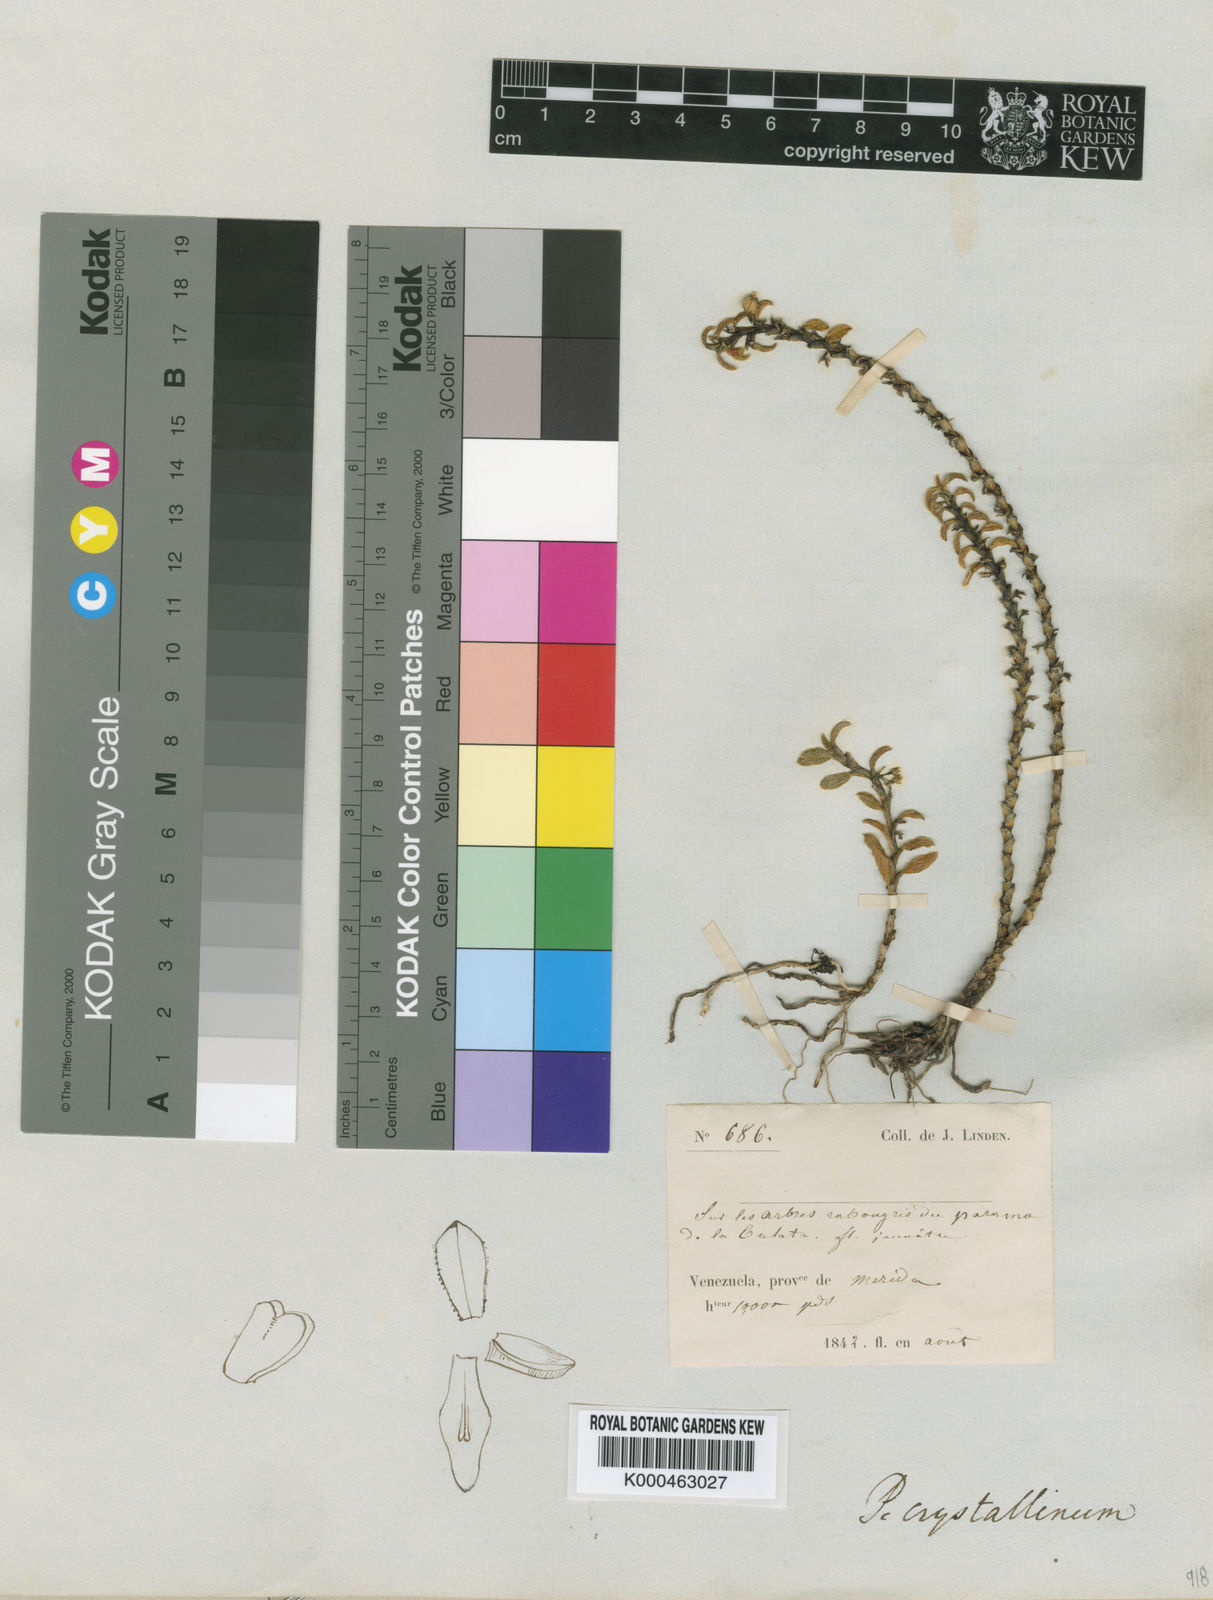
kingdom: Plantae
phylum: Tracheophyta
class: Liliopsida
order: Asparagales
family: Orchidaceae
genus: Fernandezia
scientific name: Fernandezia crystallina
